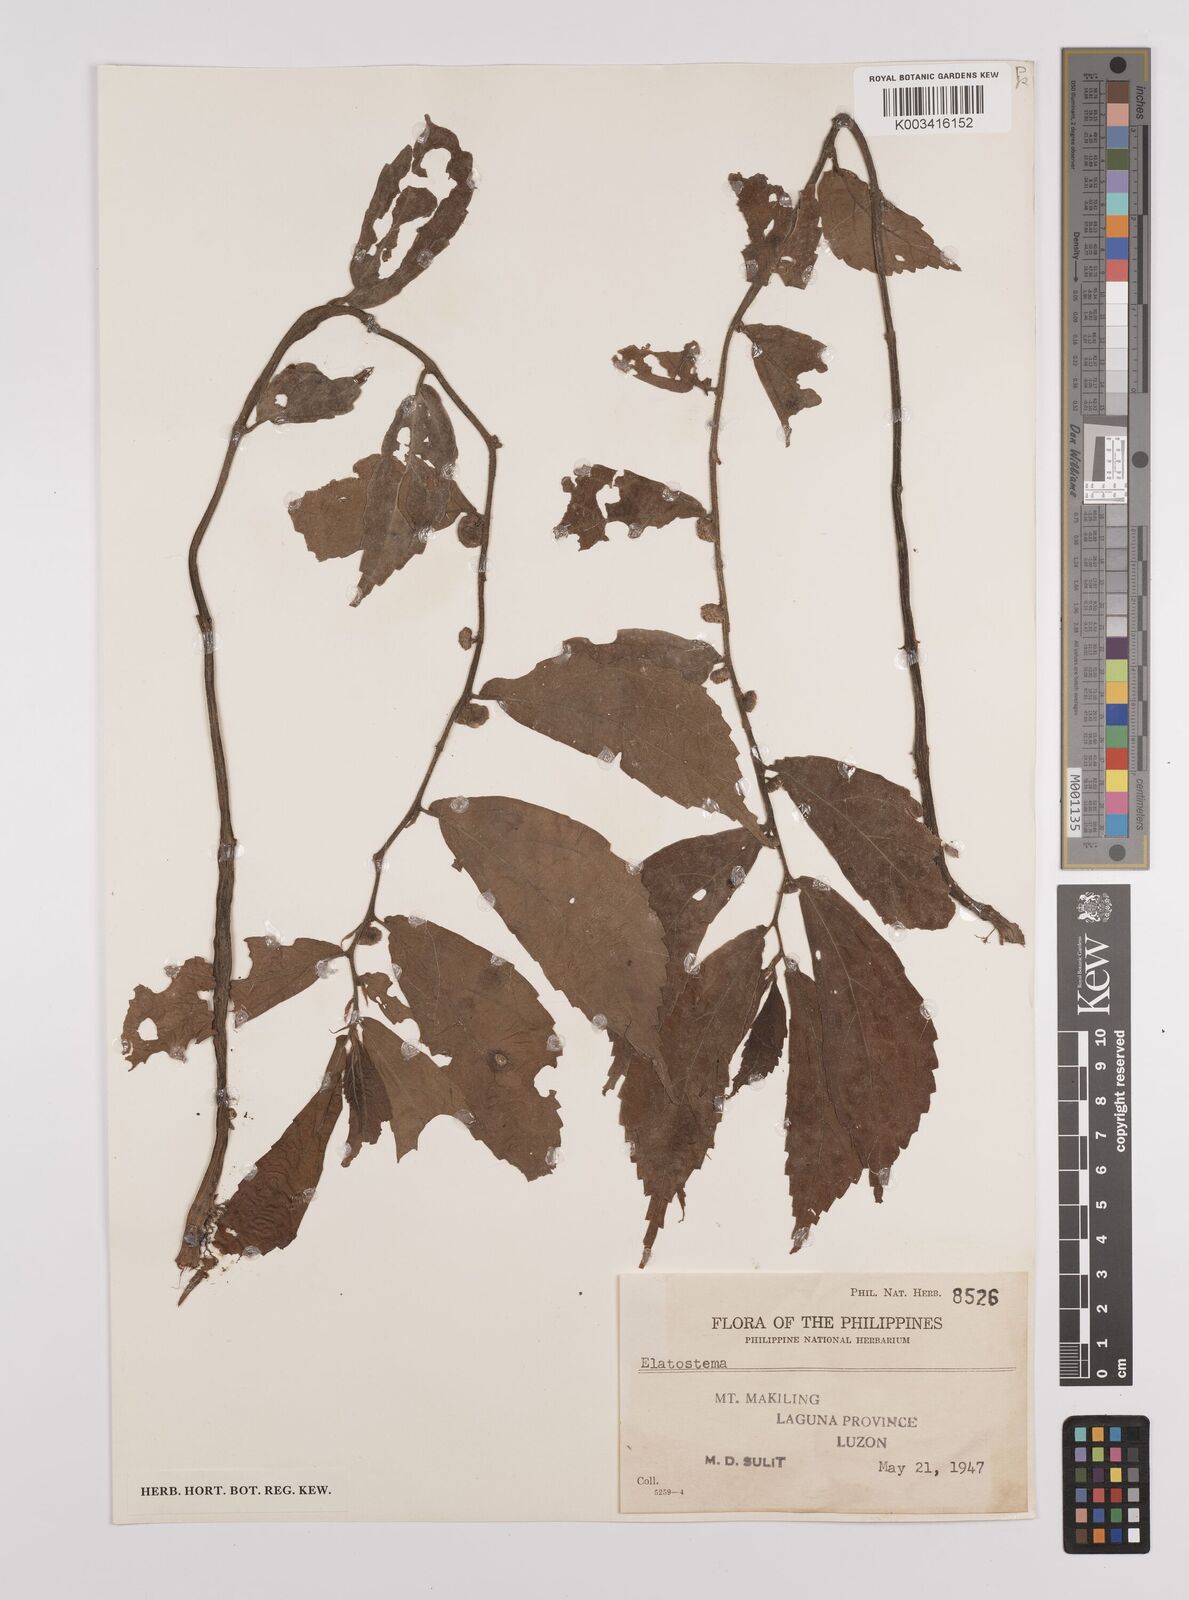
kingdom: Plantae
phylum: Tracheophyta
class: Magnoliopsida
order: Rosales
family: Urticaceae
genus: Elatostema
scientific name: Elatostema
